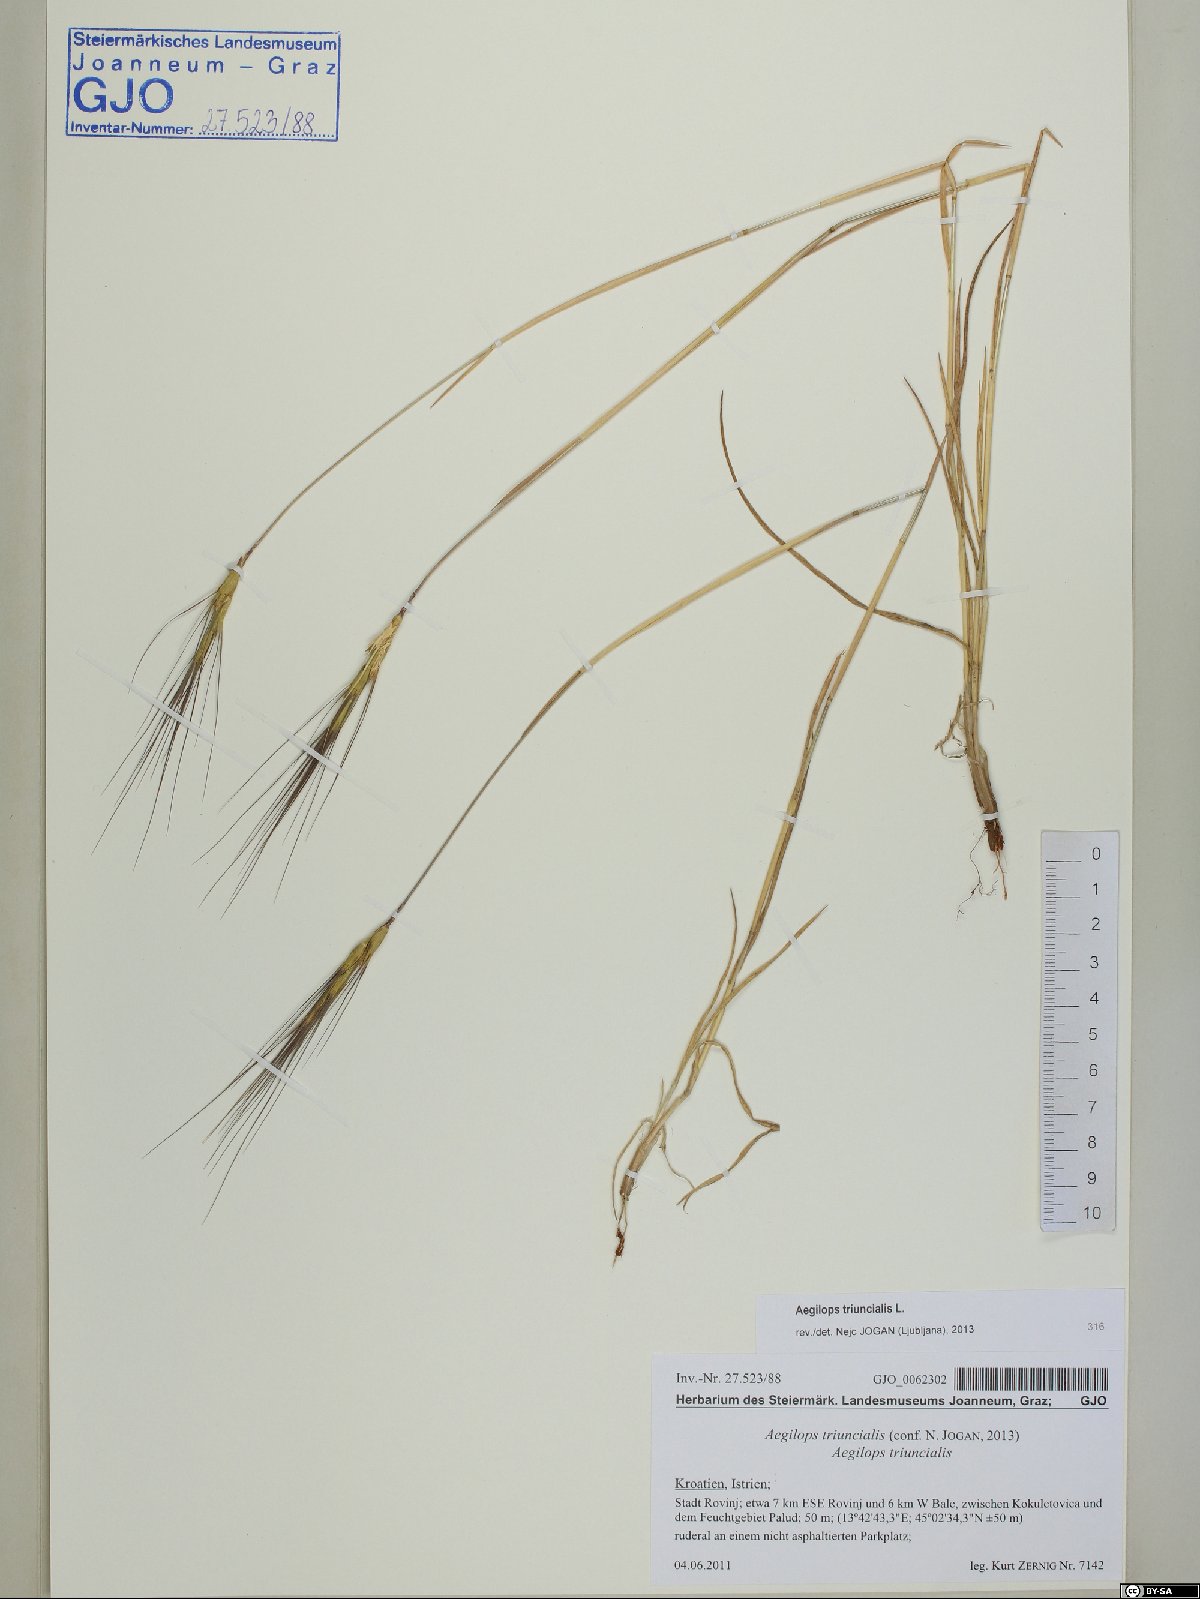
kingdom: Plantae
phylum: Tracheophyta
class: Liliopsida
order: Poales
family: Poaceae
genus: Aegilops
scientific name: Aegilops triuncialis
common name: Barb goat grass
